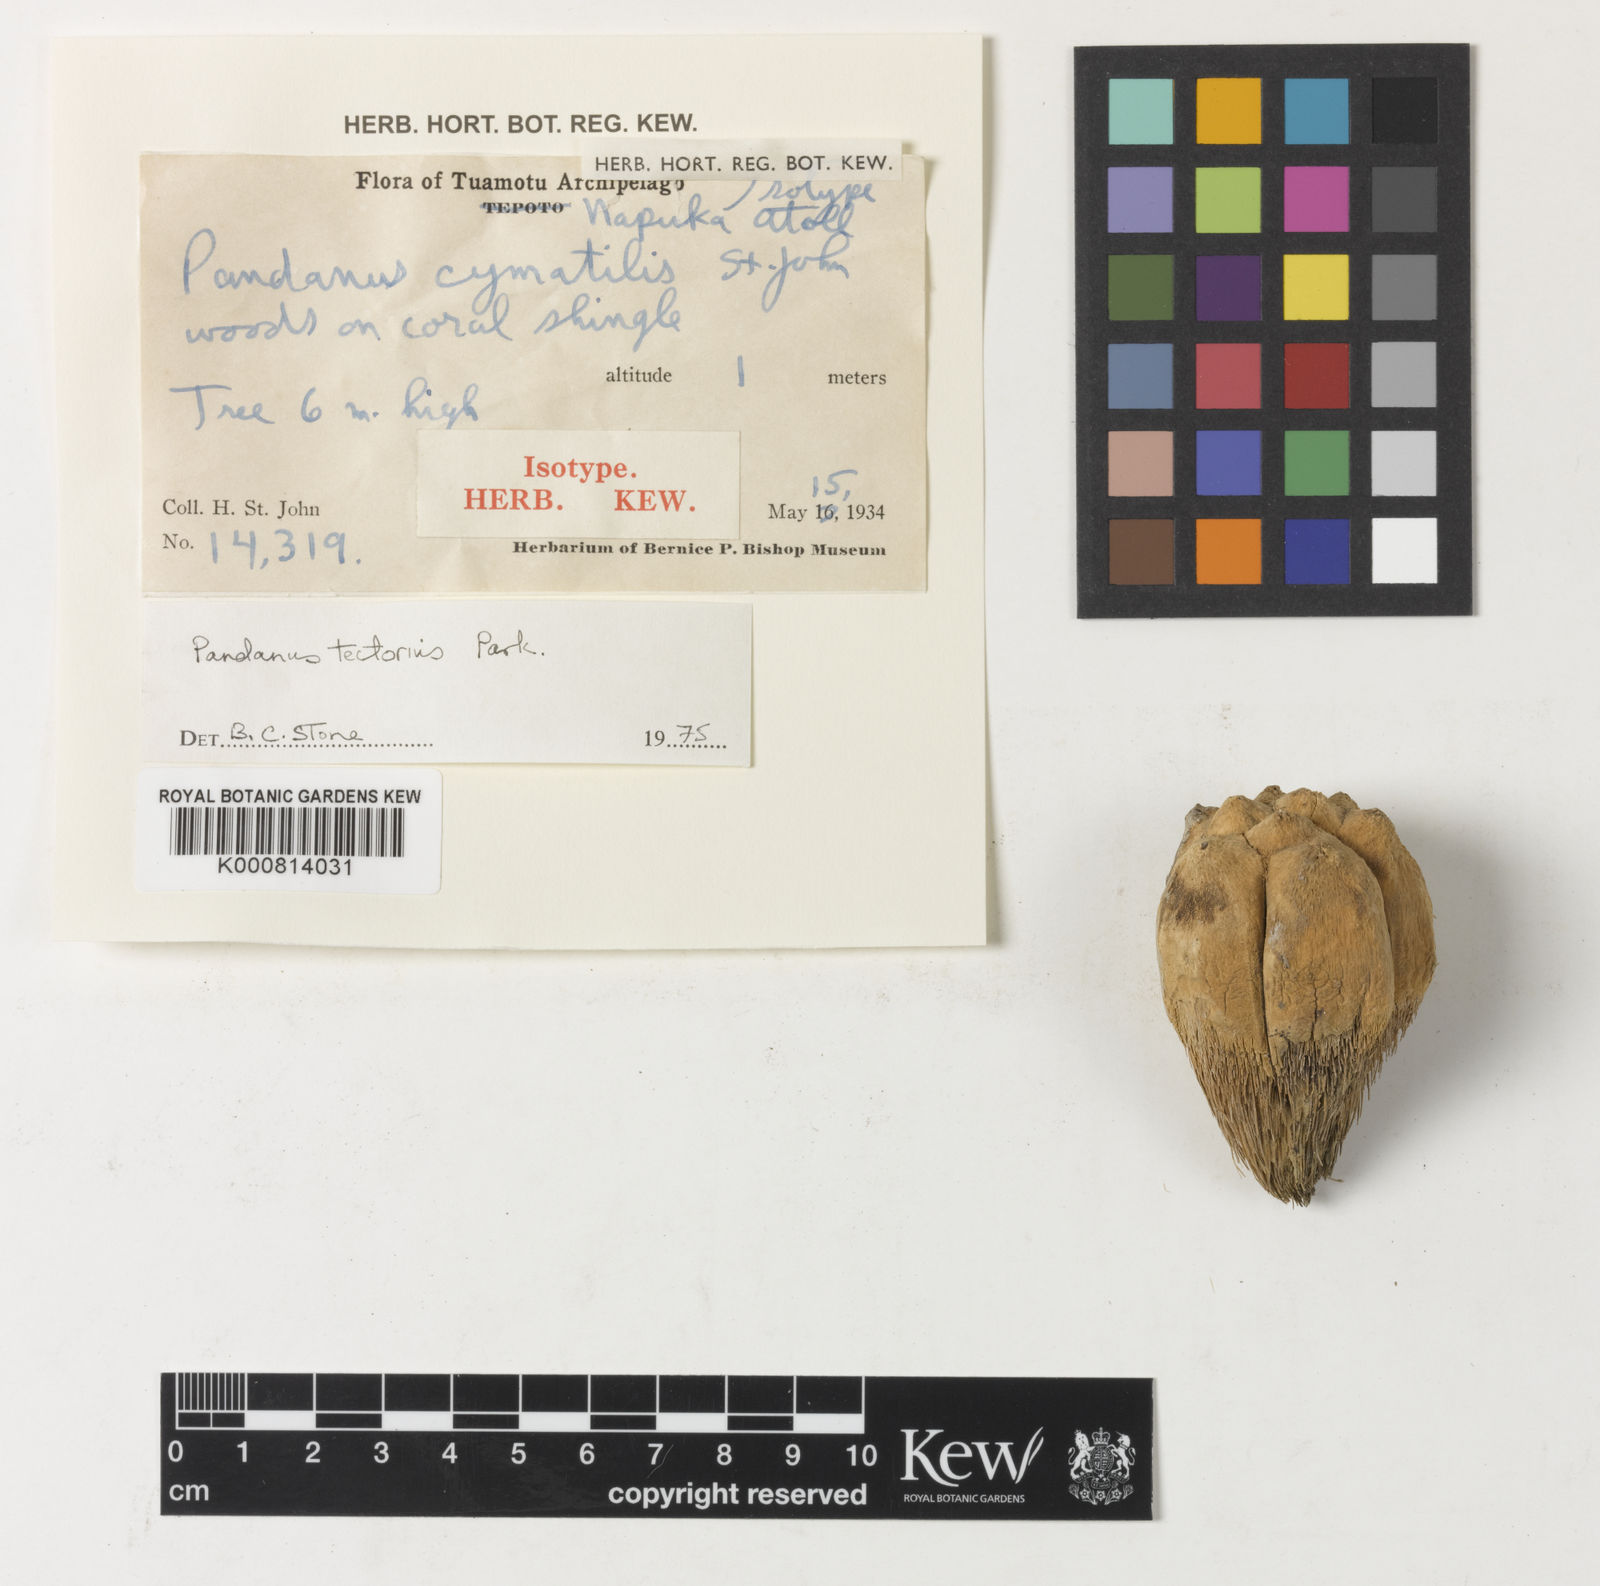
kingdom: Plantae
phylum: Tracheophyta
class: Liliopsida
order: Pandanales
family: Pandanaceae
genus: Pandanus
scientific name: Pandanus
